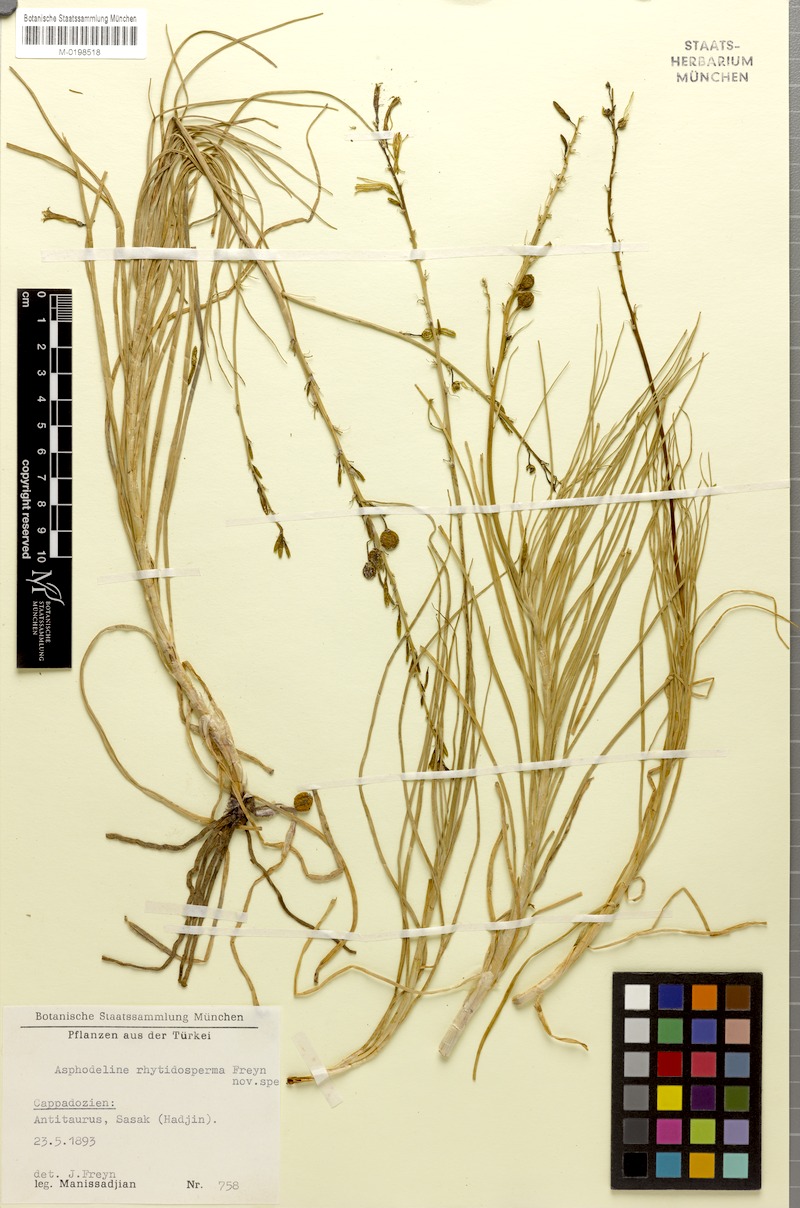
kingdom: Plantae
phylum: Tracheophyta
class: Liliopsida
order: Asparagales
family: Asphodelaceae
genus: Asphodeline
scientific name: Asphodeline brevicaulis
